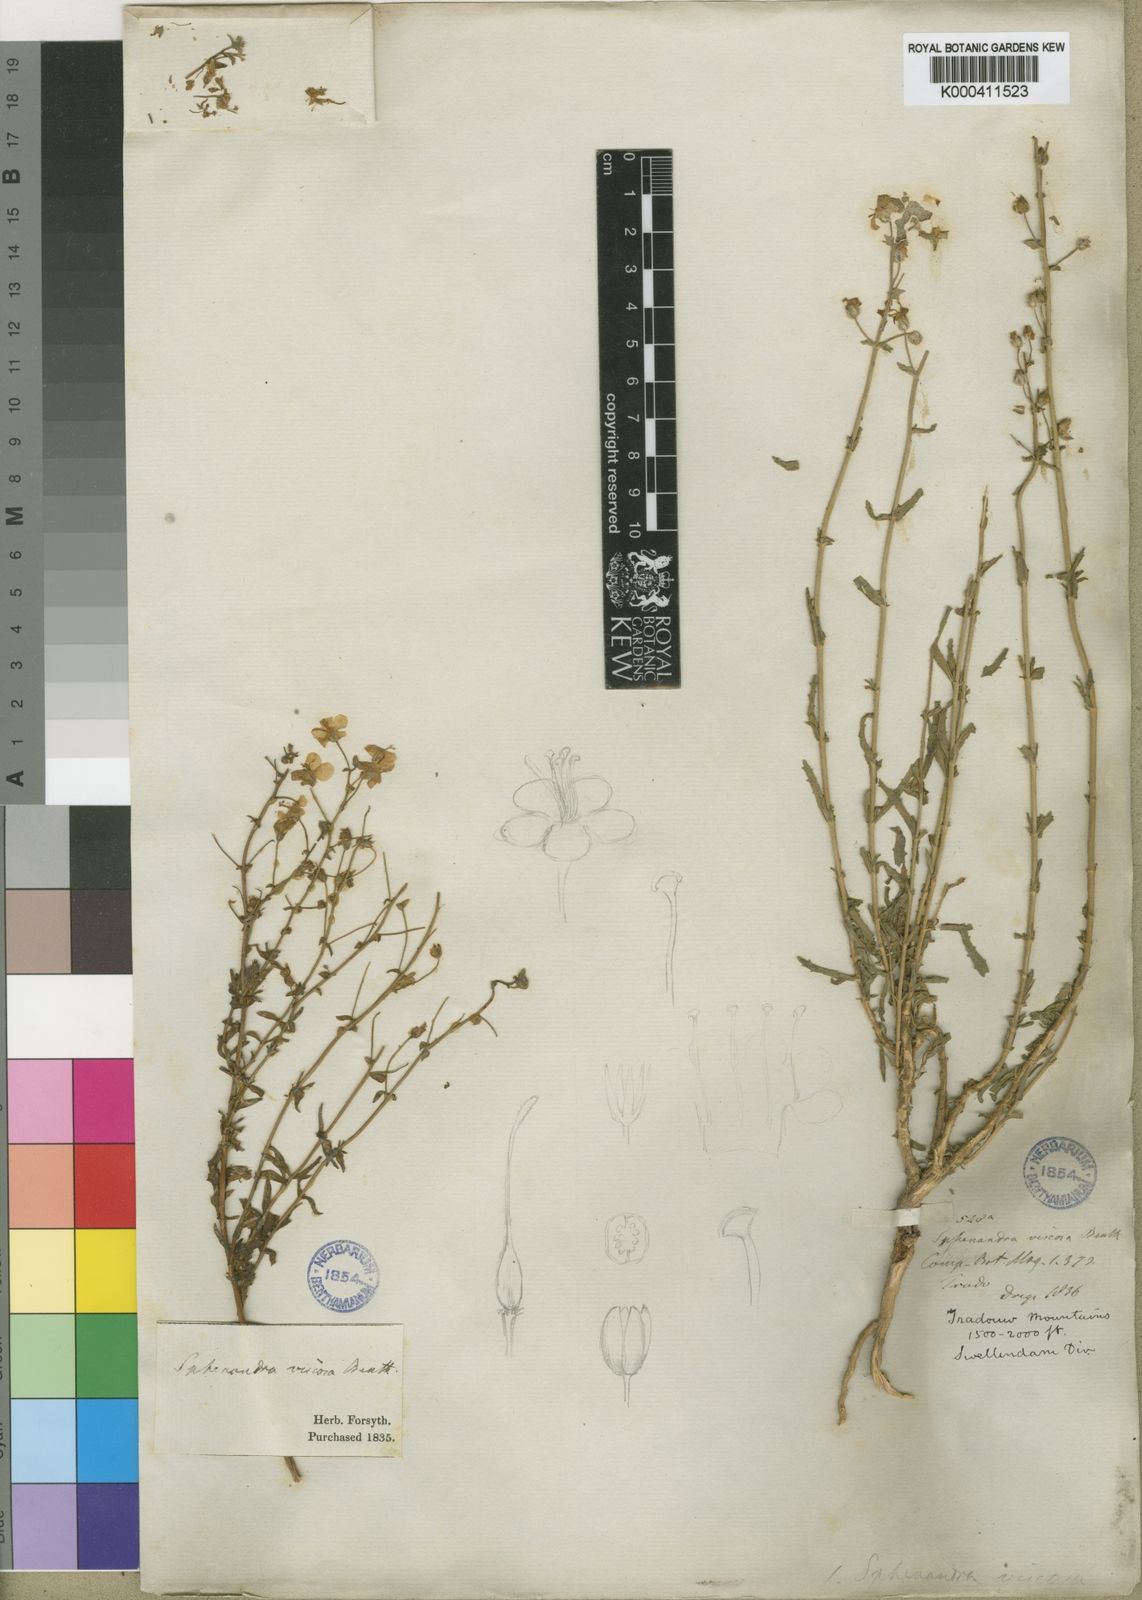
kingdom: Plantae
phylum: Tracheophyta
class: Magnoliopsida
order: Lamiales
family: Scrophulariaceae
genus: Chaenostoma
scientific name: Chaenostoma caeruleum
